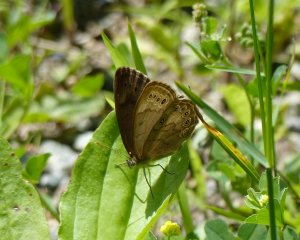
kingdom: Animalia
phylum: Arthropoda
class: Insecta
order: Lepidoptera
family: Nymphalidae
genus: Lethe
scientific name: Lethe eurydice
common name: Eyed Brown
